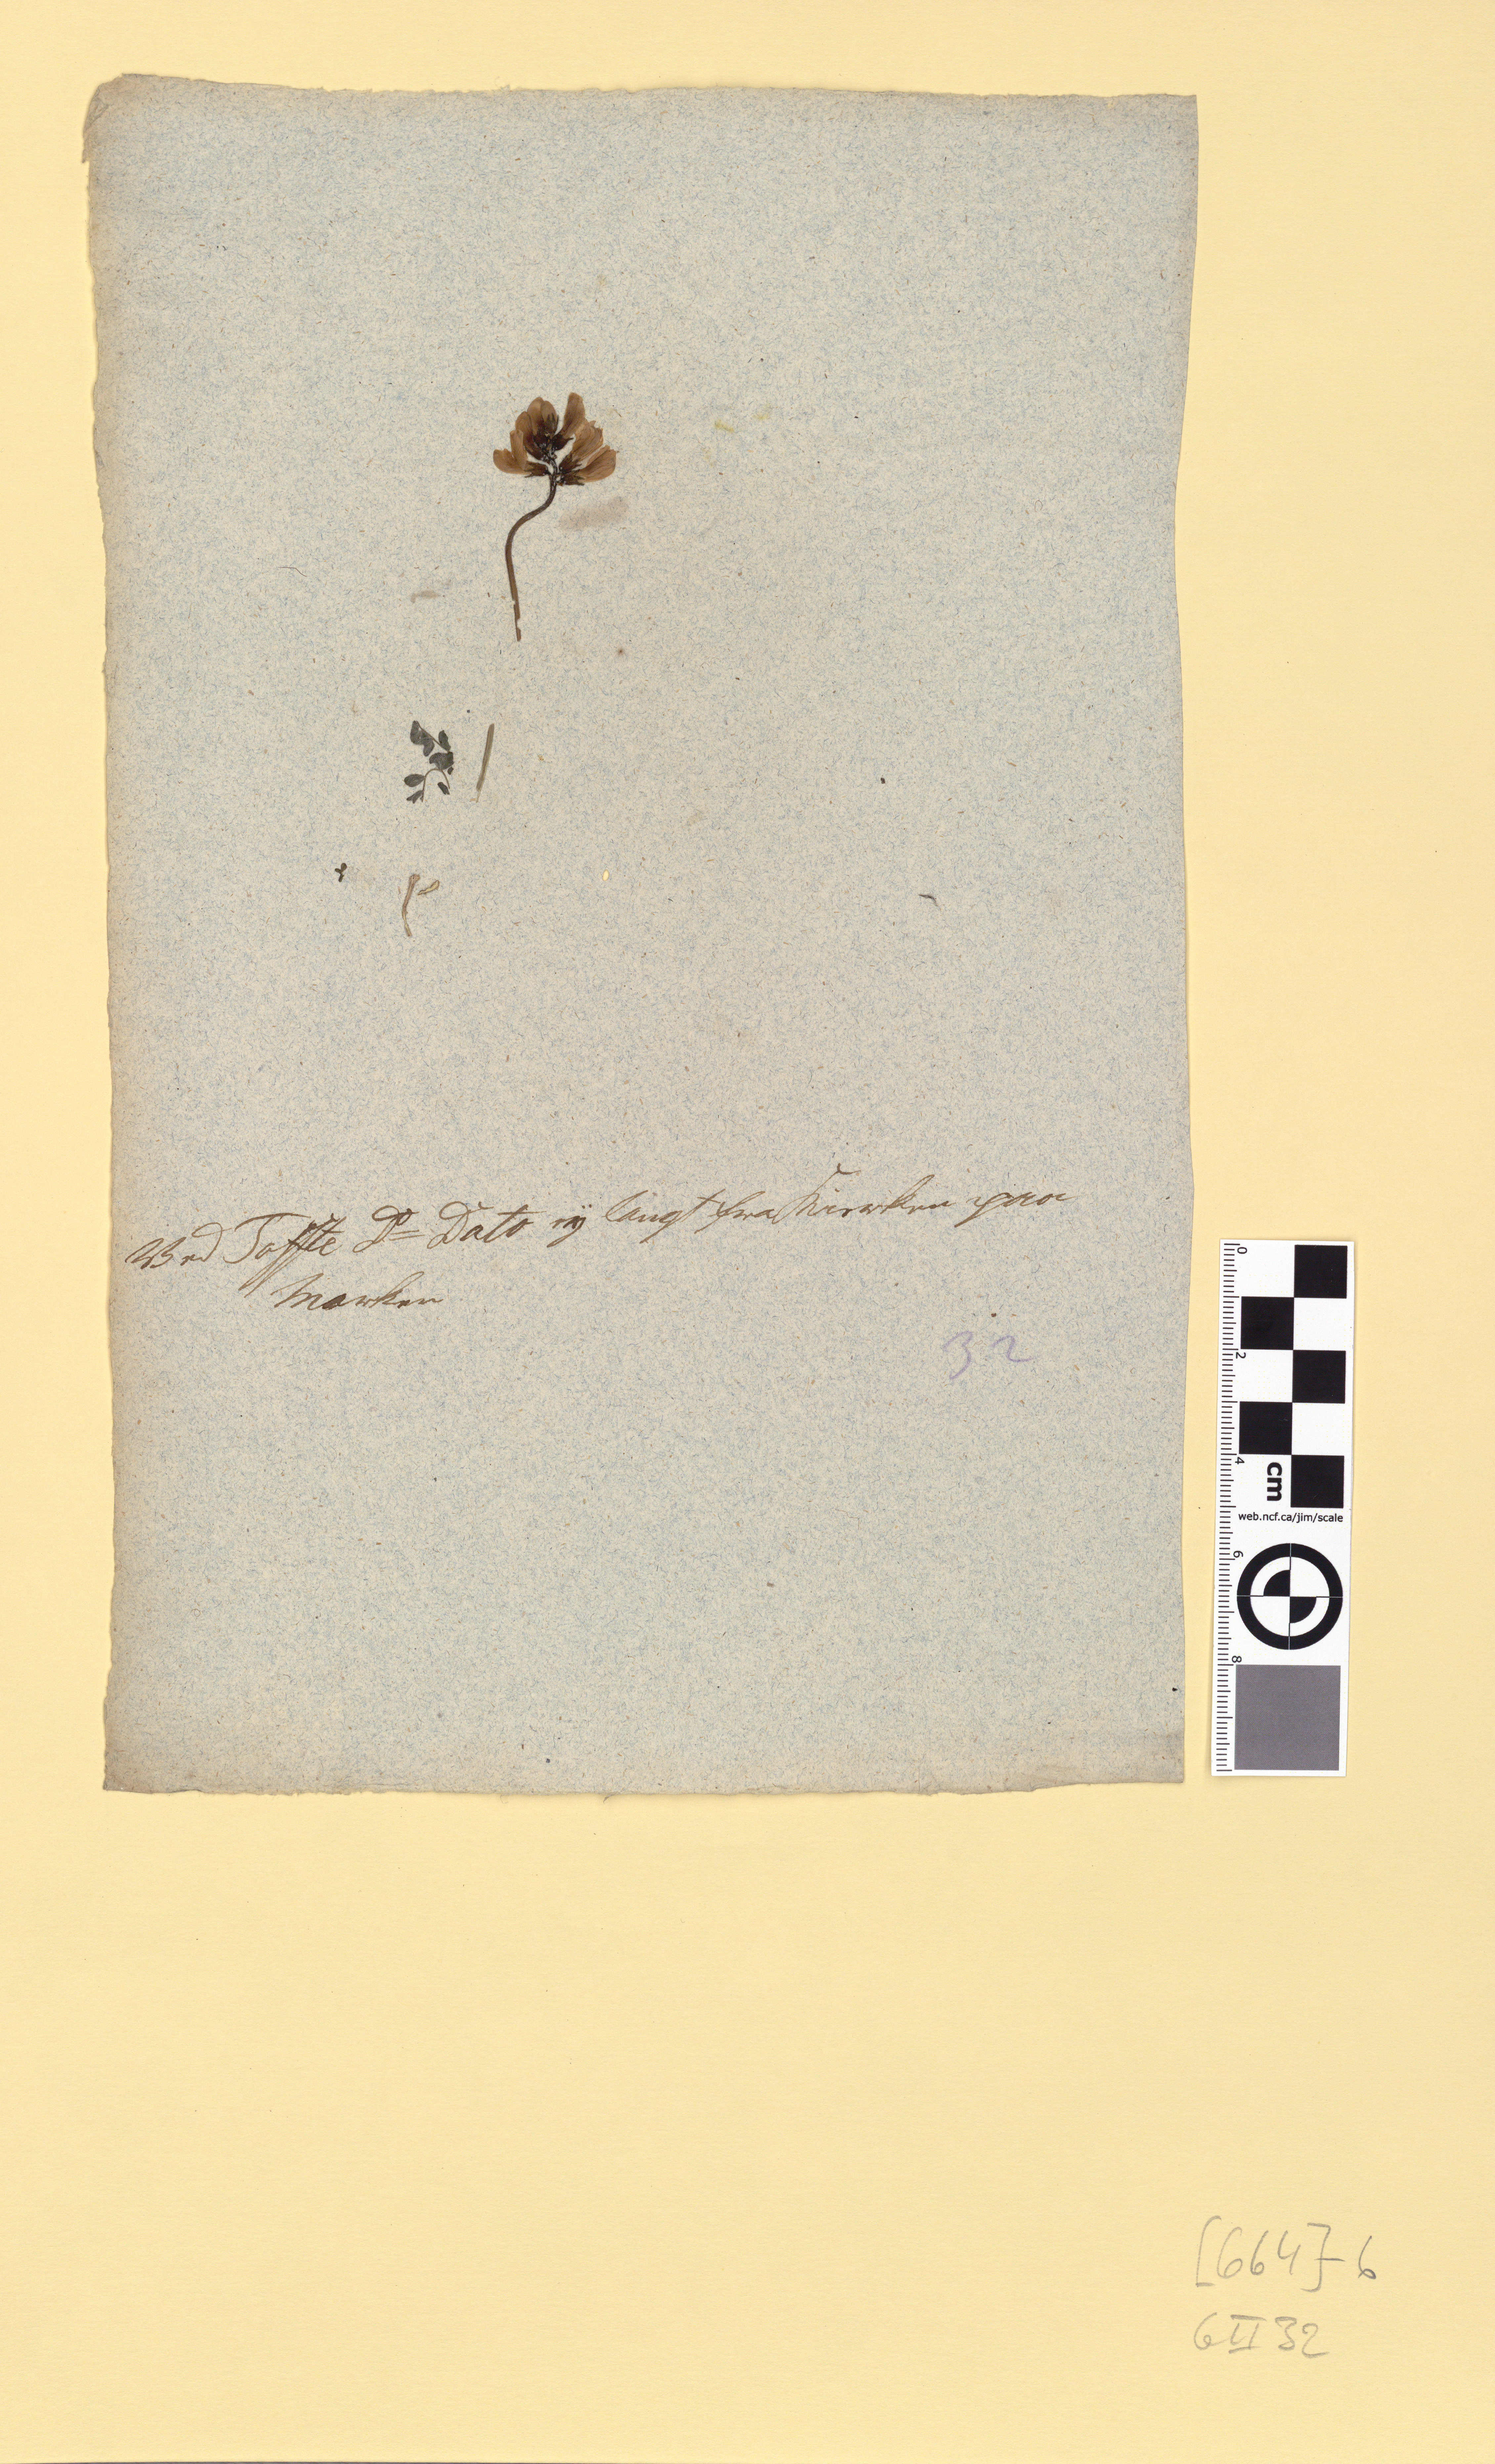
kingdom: Plantae
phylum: Tracheophyta
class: Magnoliopsida
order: Fabales
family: Fabaceae
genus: Astragalus
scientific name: Astragalus alpinus
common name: Alpine milk-vetch
